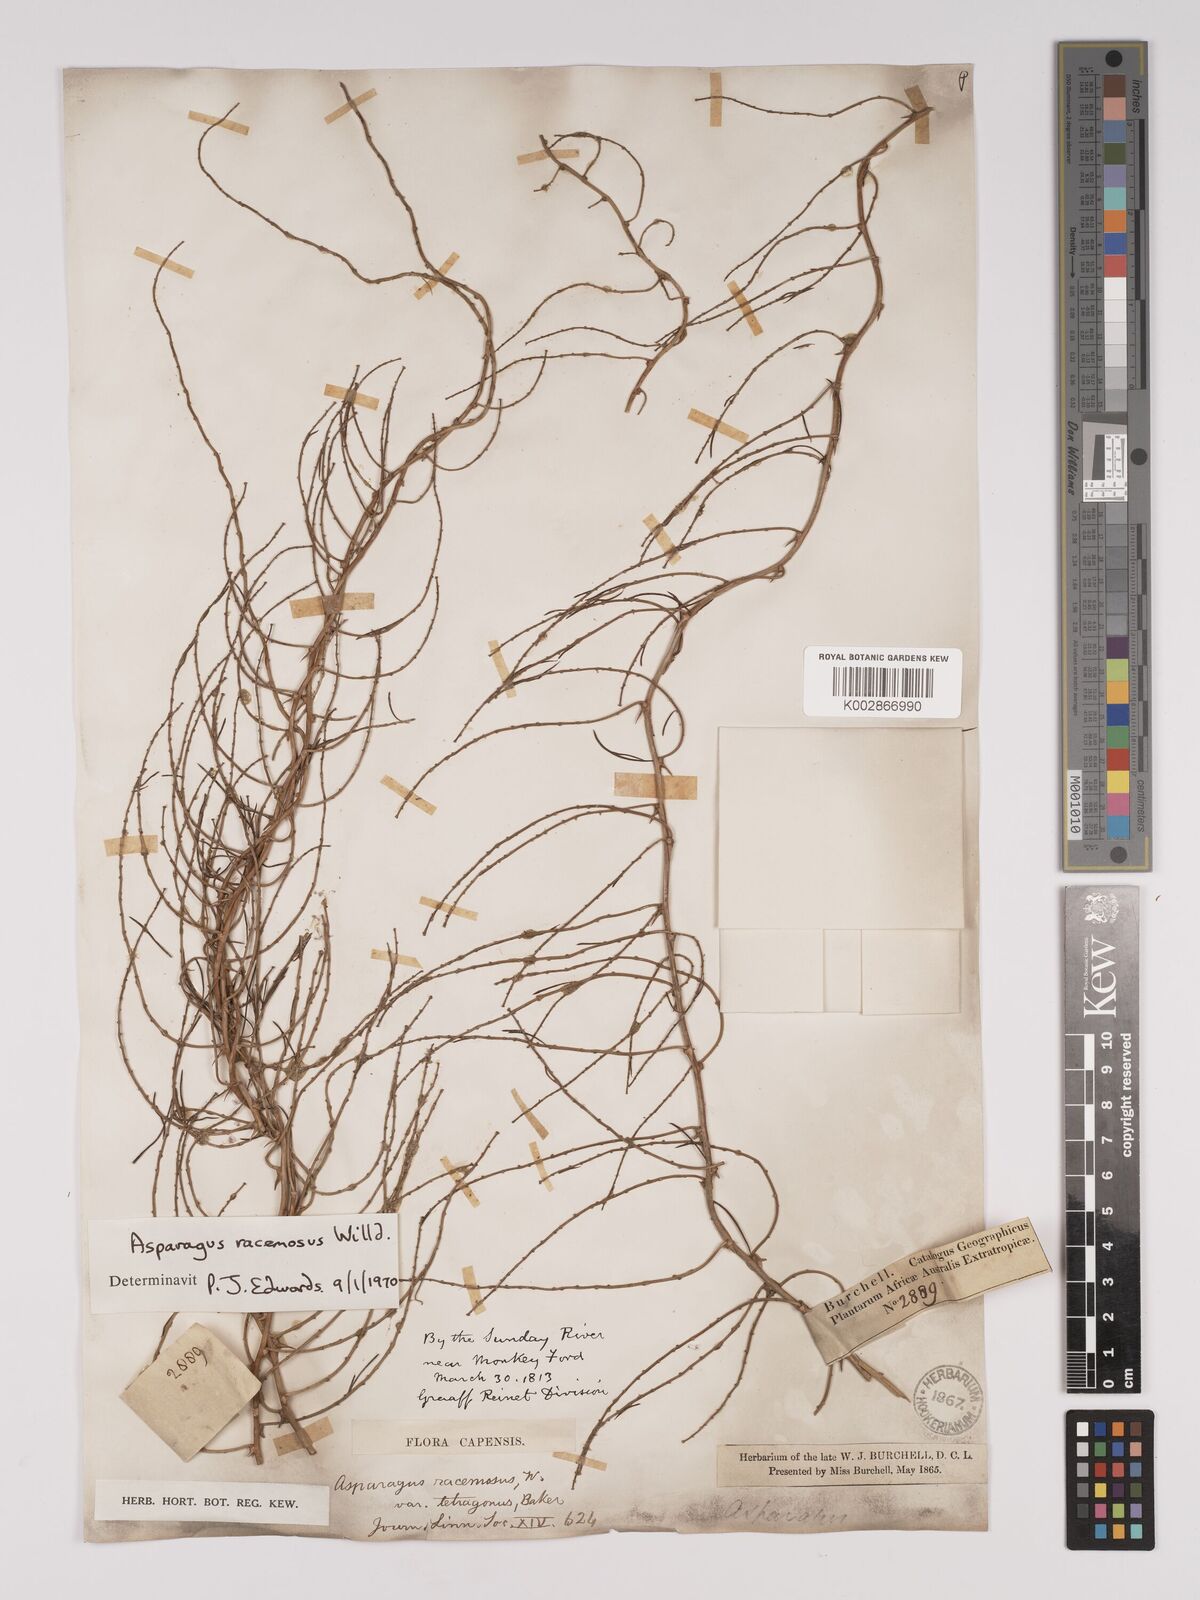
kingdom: Plantae
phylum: Tracheophyta
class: Liliopsida
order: Asparagales
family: Asparagaceae
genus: Asparagus
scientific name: Asparagus racemosus
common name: Asparagus-fern
